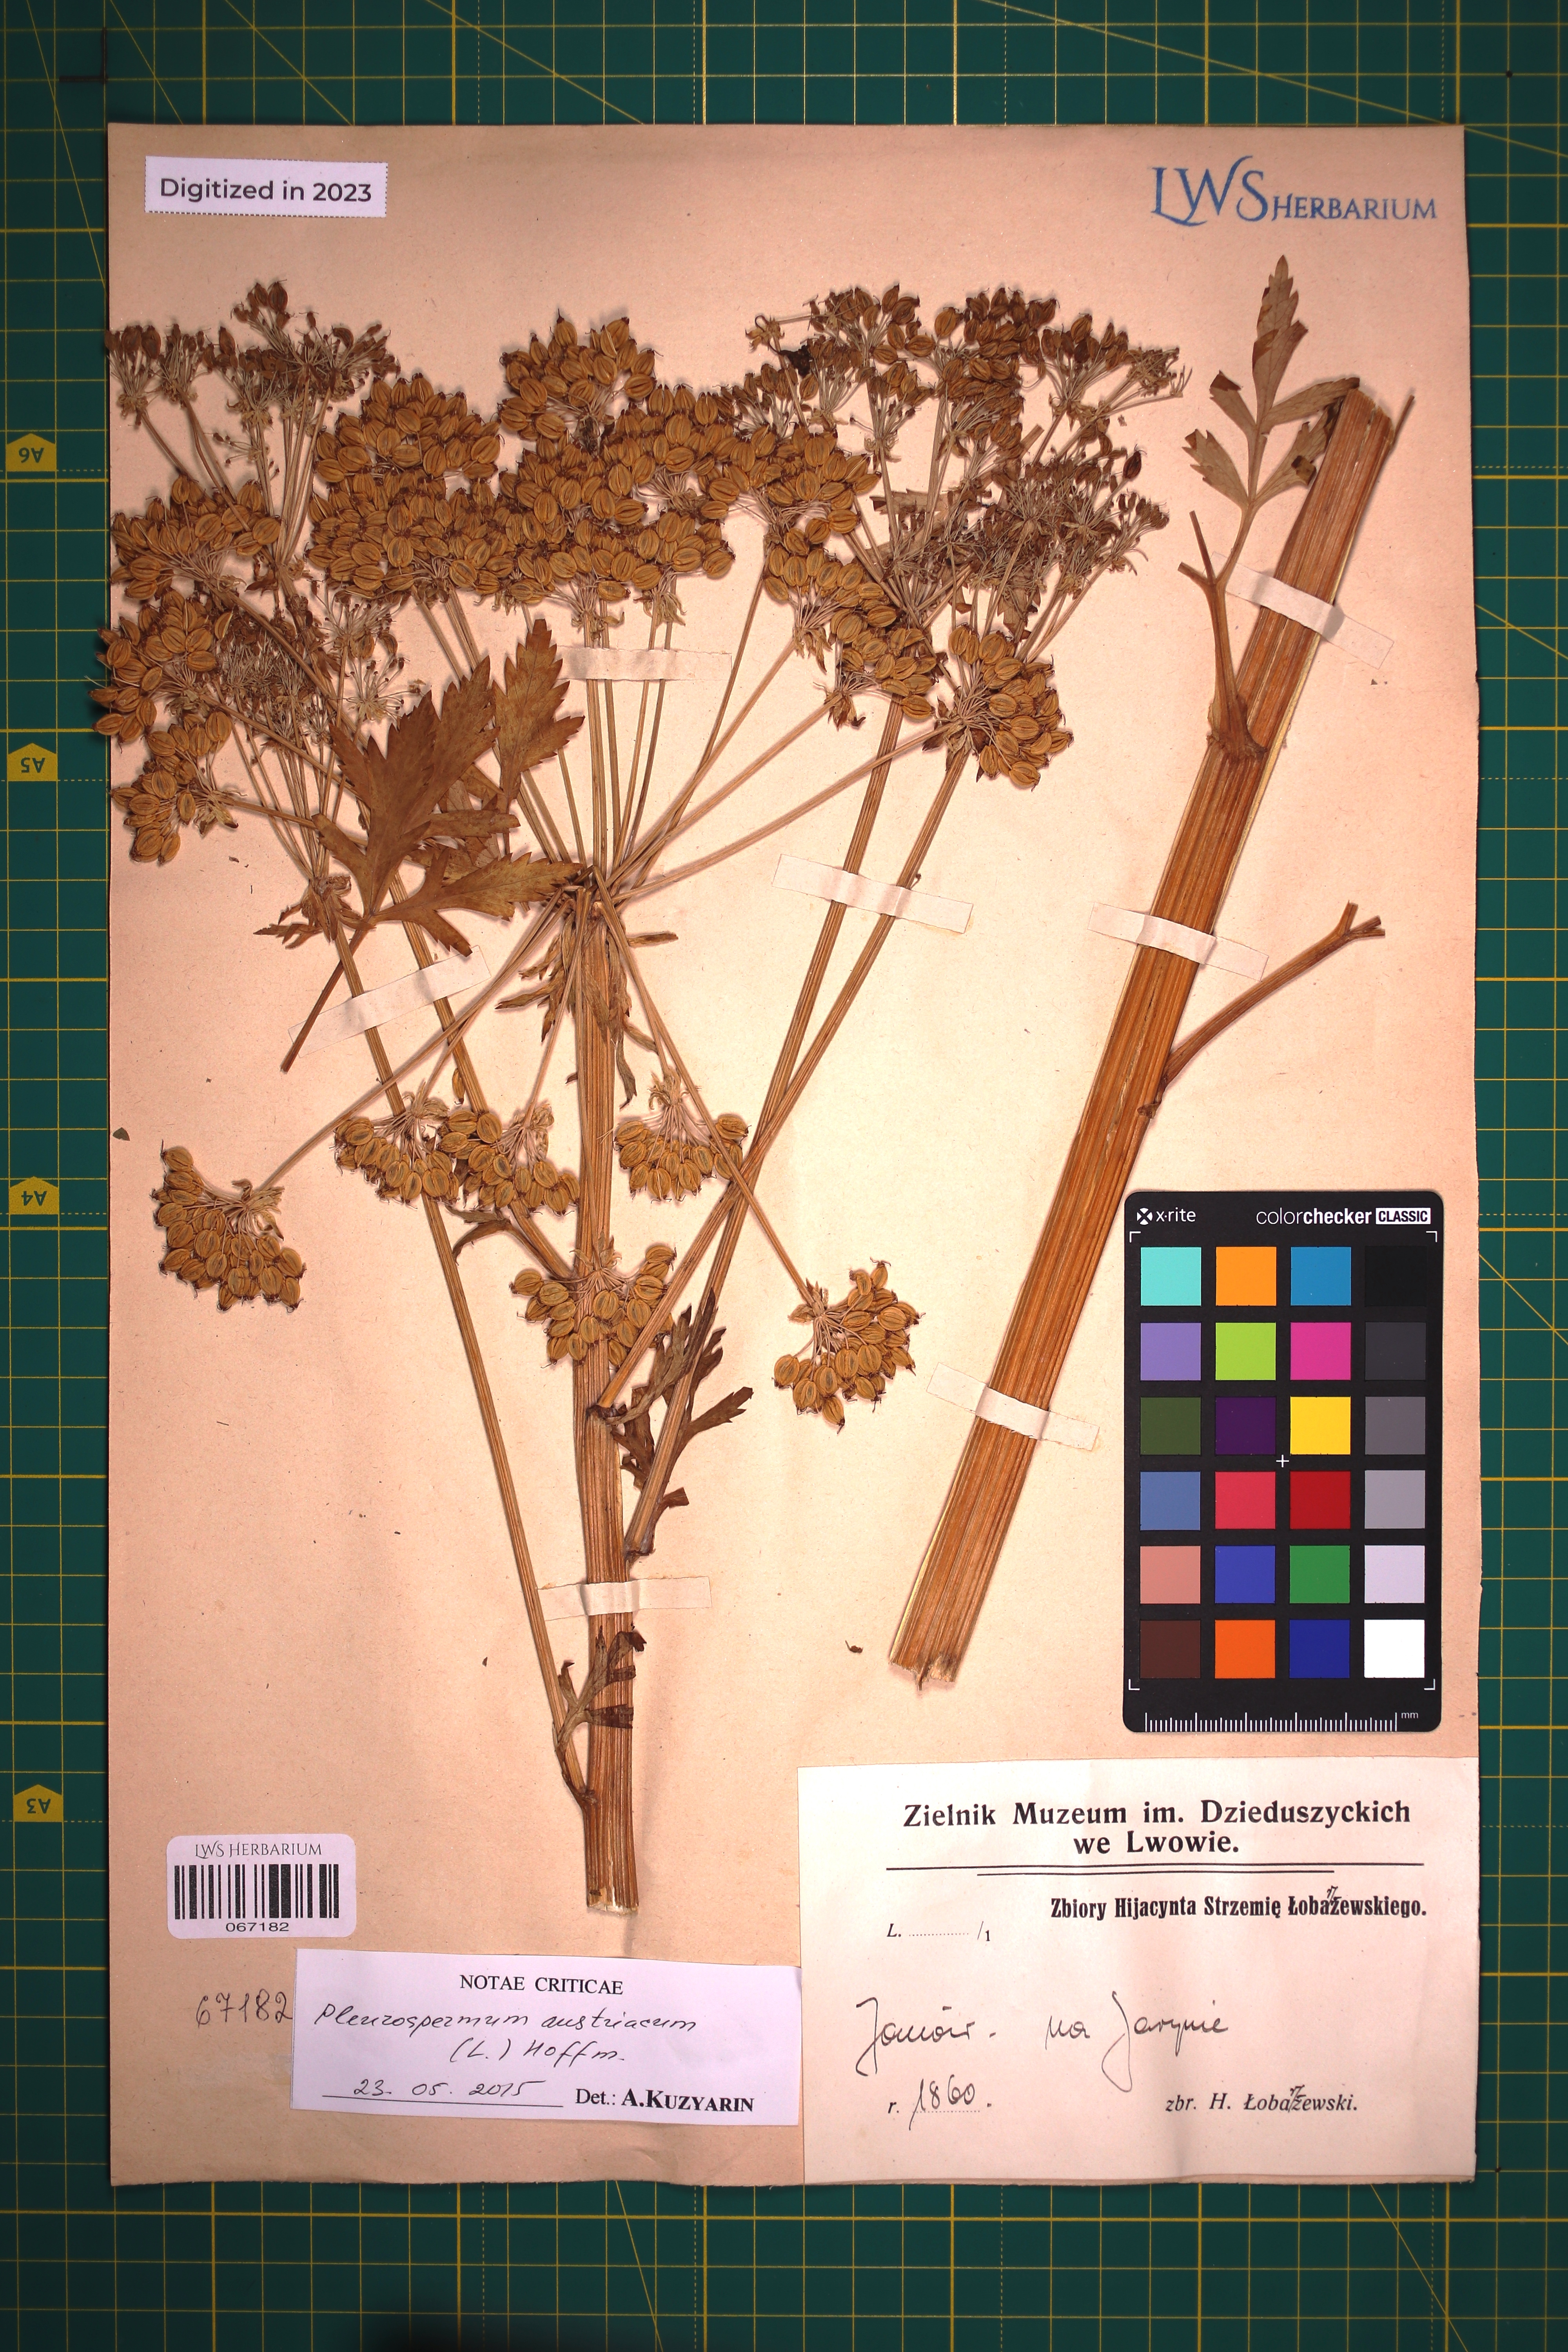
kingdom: Plantae
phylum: Tracheophyta
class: Magnoliopsida
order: Apiales
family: Apiaceae
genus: Pleurospermum
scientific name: Pleurospermum austriacum
